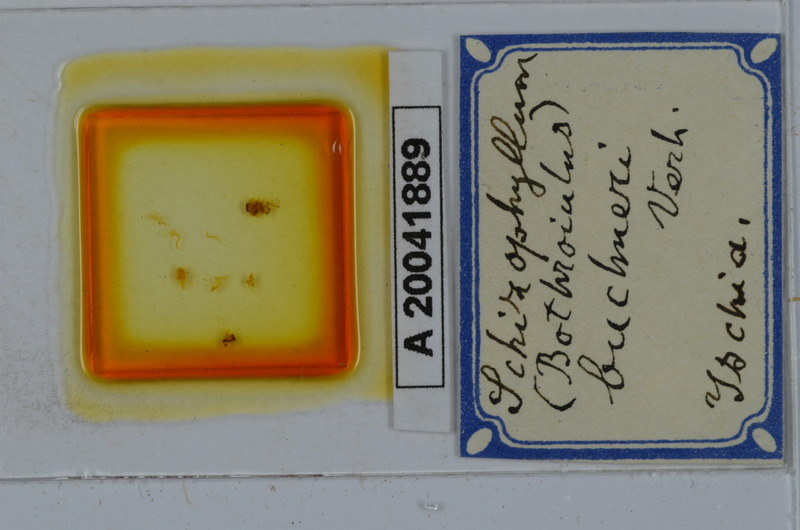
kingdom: Animalia
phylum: Arthropoda
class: Diplopoda
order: Julida
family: Julidae
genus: Schizophyllum
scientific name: Schizophyllum buchneri
